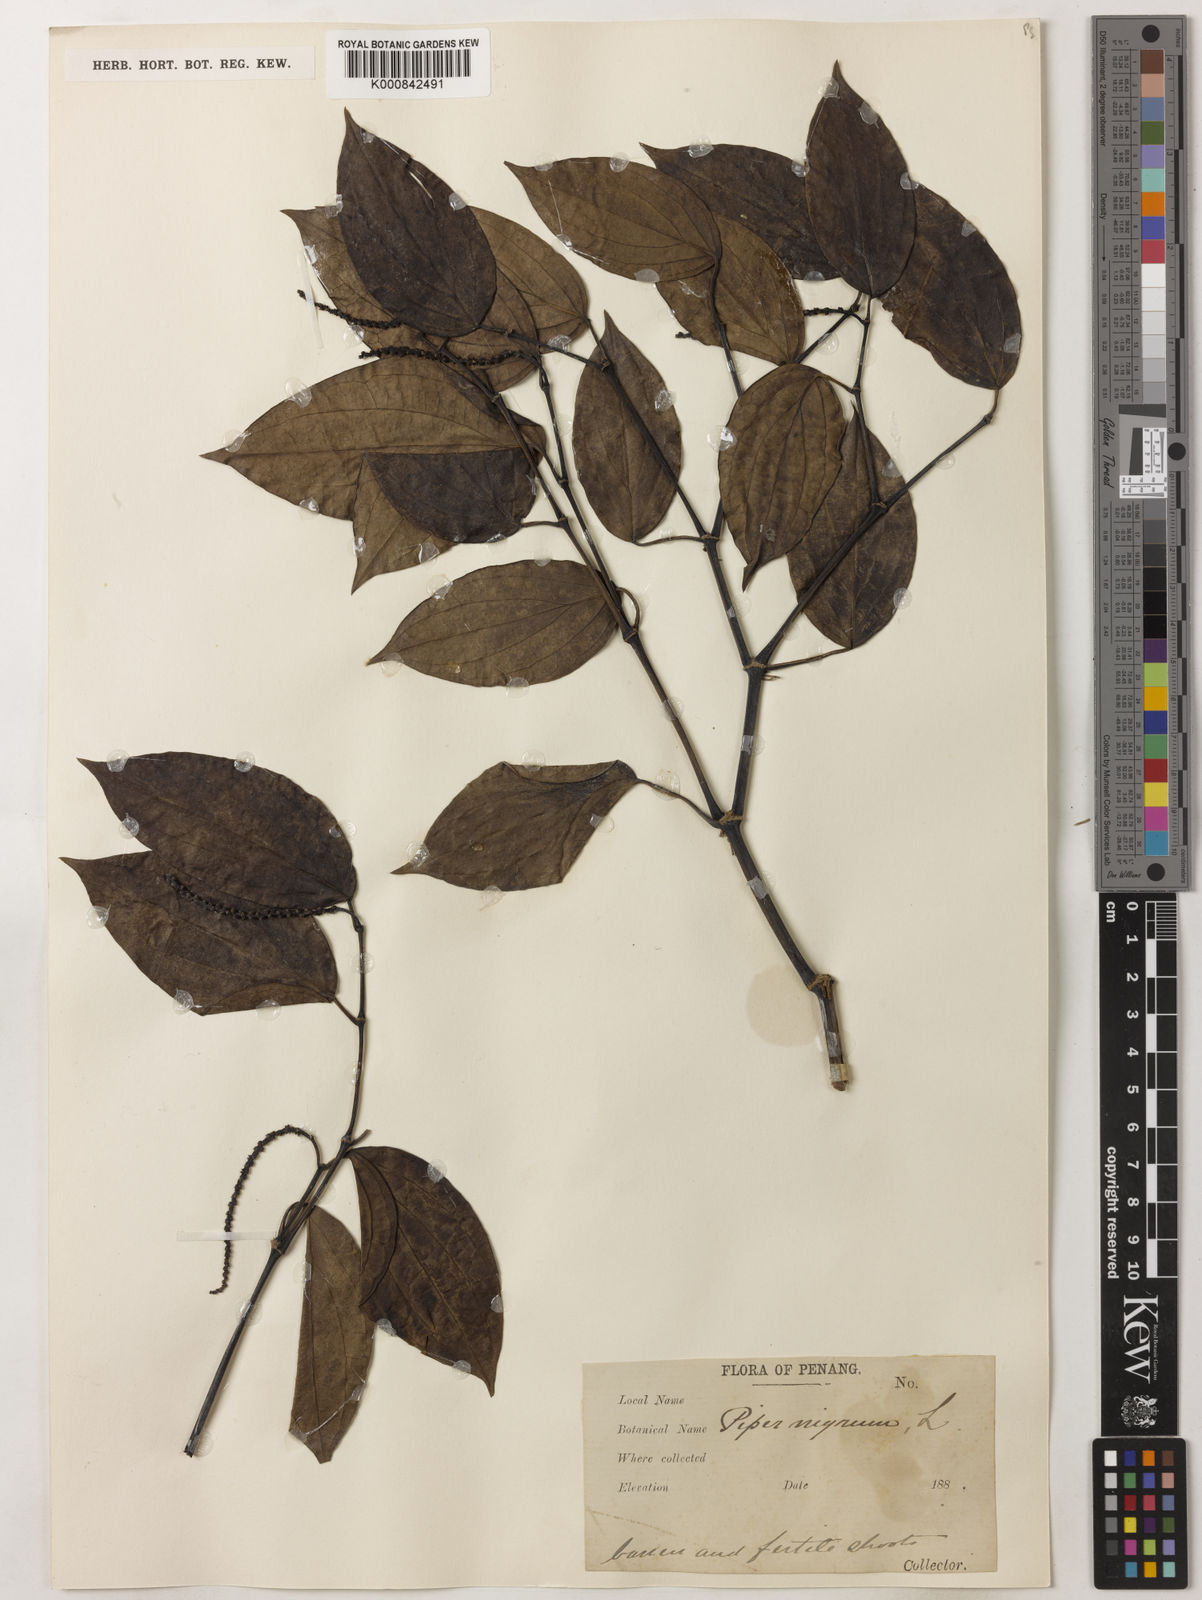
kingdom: Plantae
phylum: Tracheophyta
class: Magnoliopsida
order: Piperales
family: Piperaceae
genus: Piper
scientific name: Piper nigrum
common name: Black pepper
